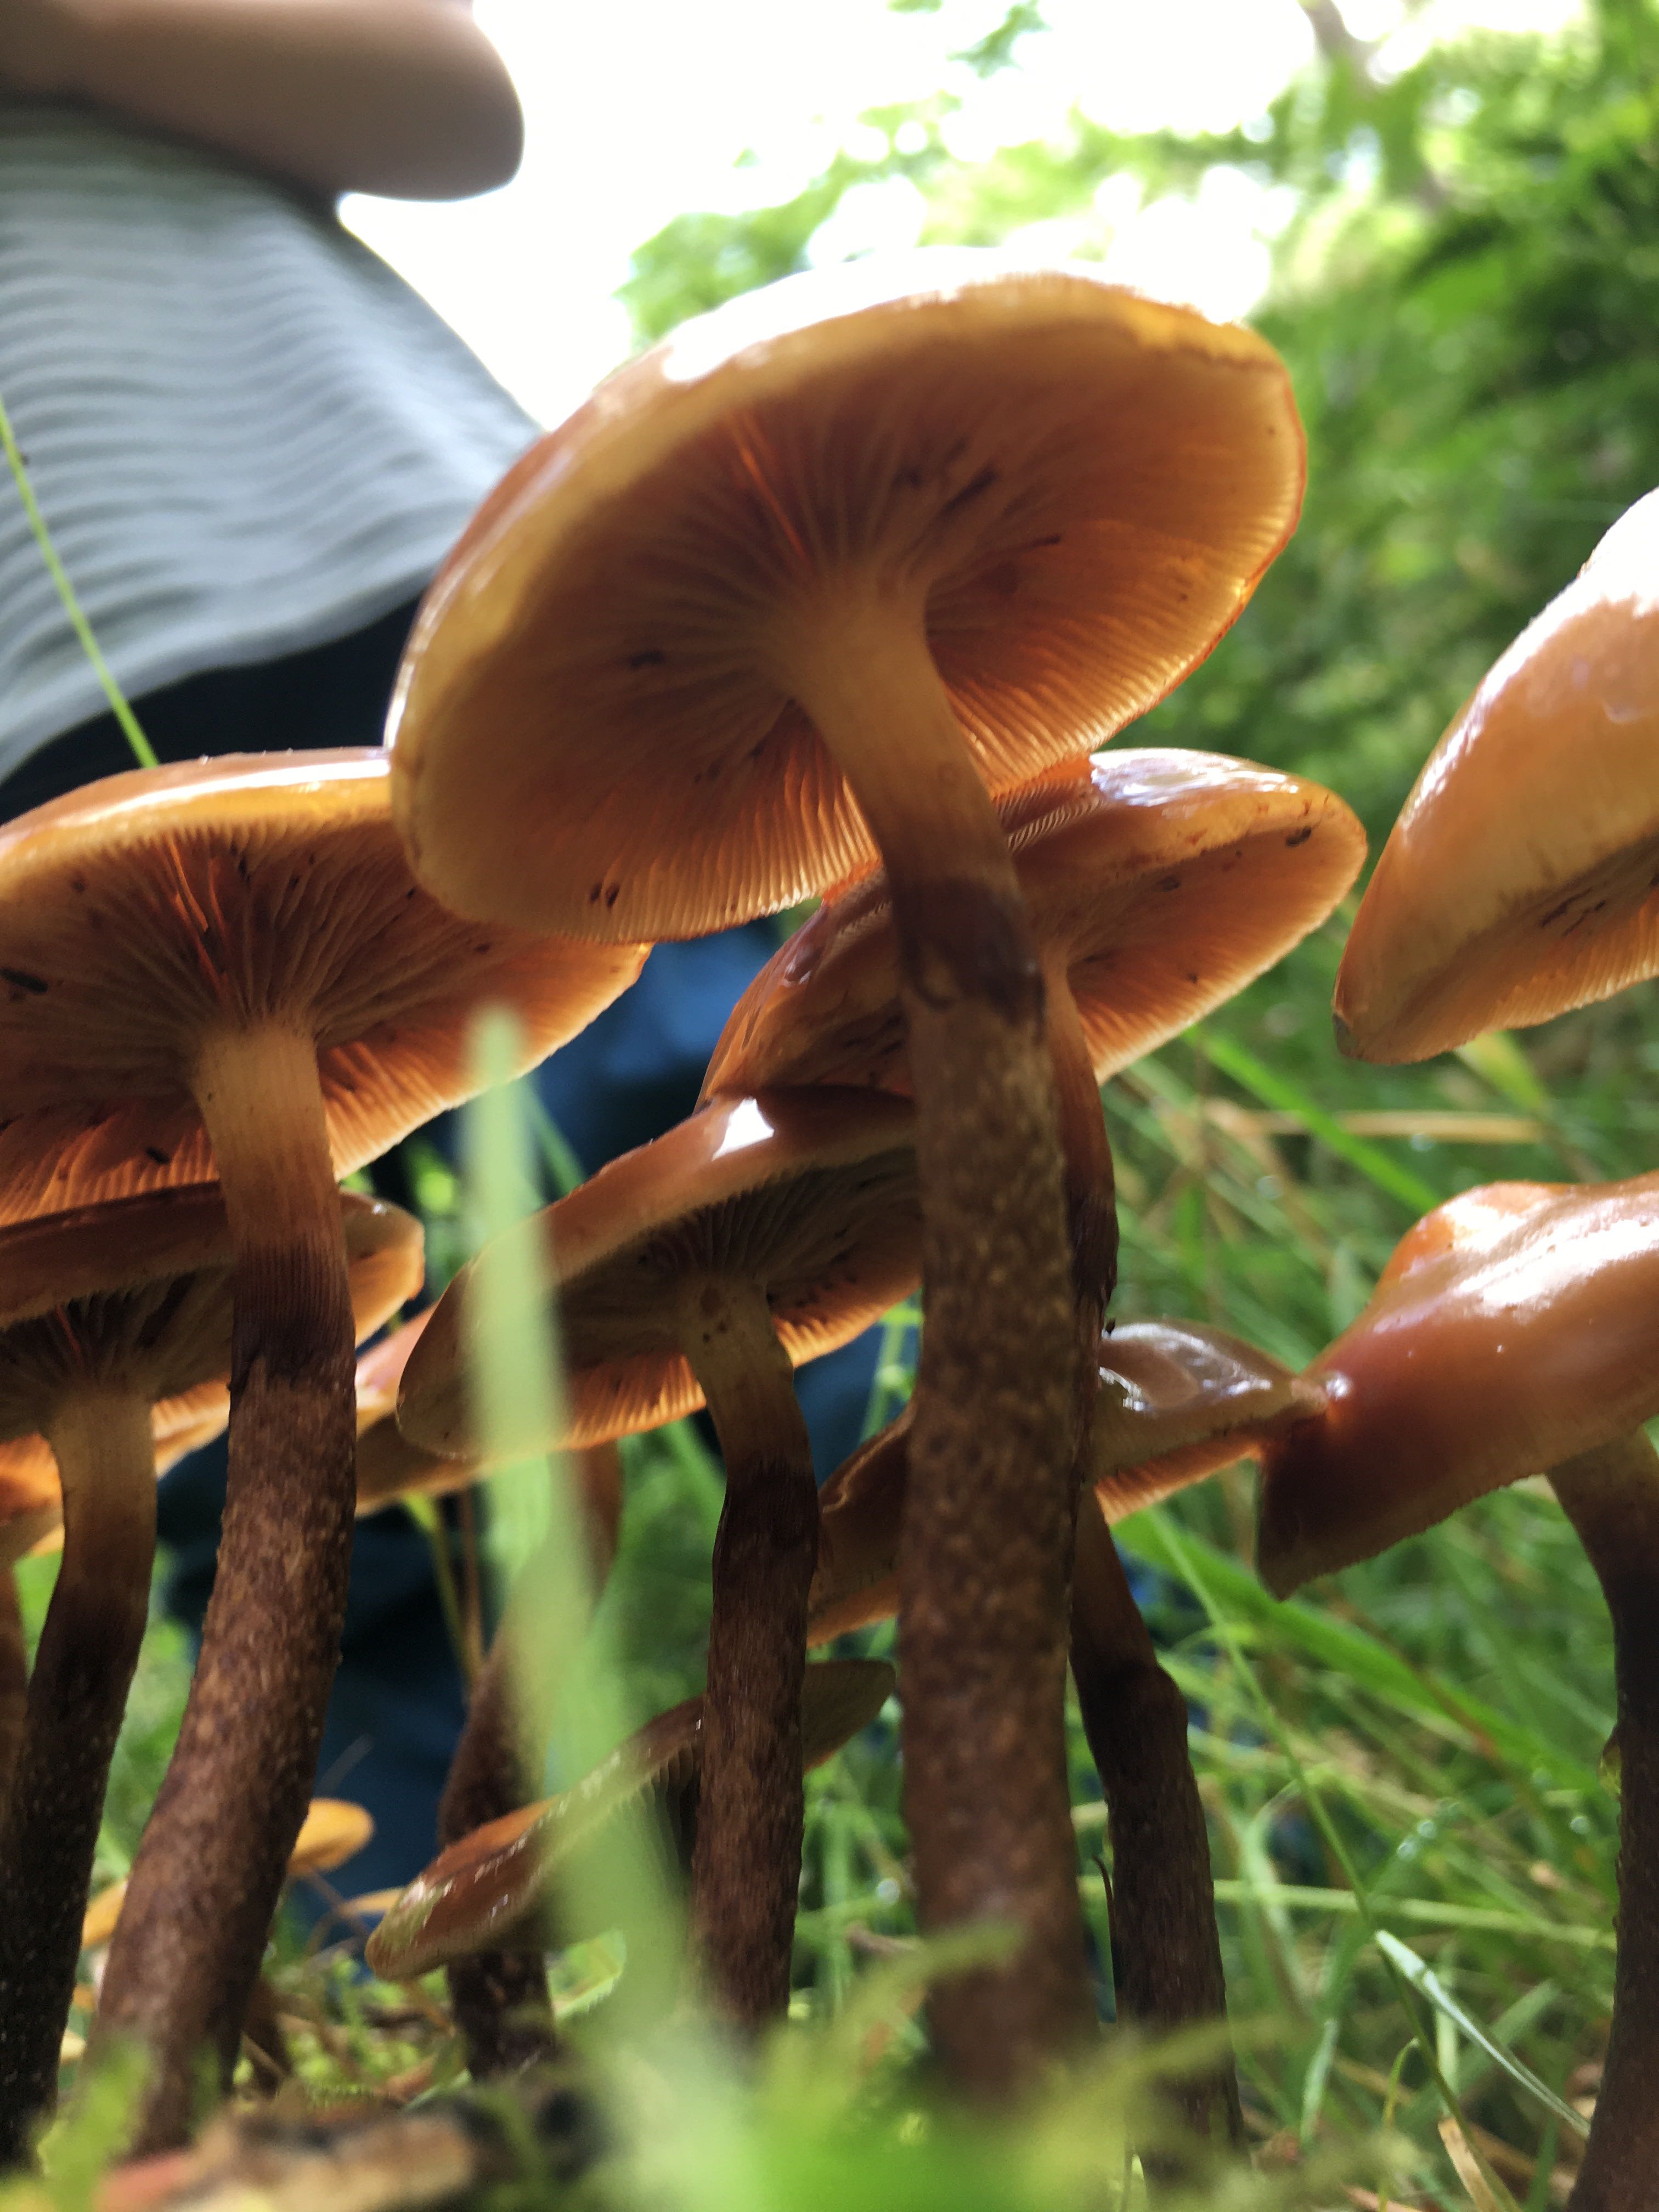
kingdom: Fungi
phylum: Basidiomycota
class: Agaricomycetes
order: Agaricales
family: Strophariaceae
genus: Kuehneromyces
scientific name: Kuehneromyces mutabilis
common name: foranderlig skælhat
